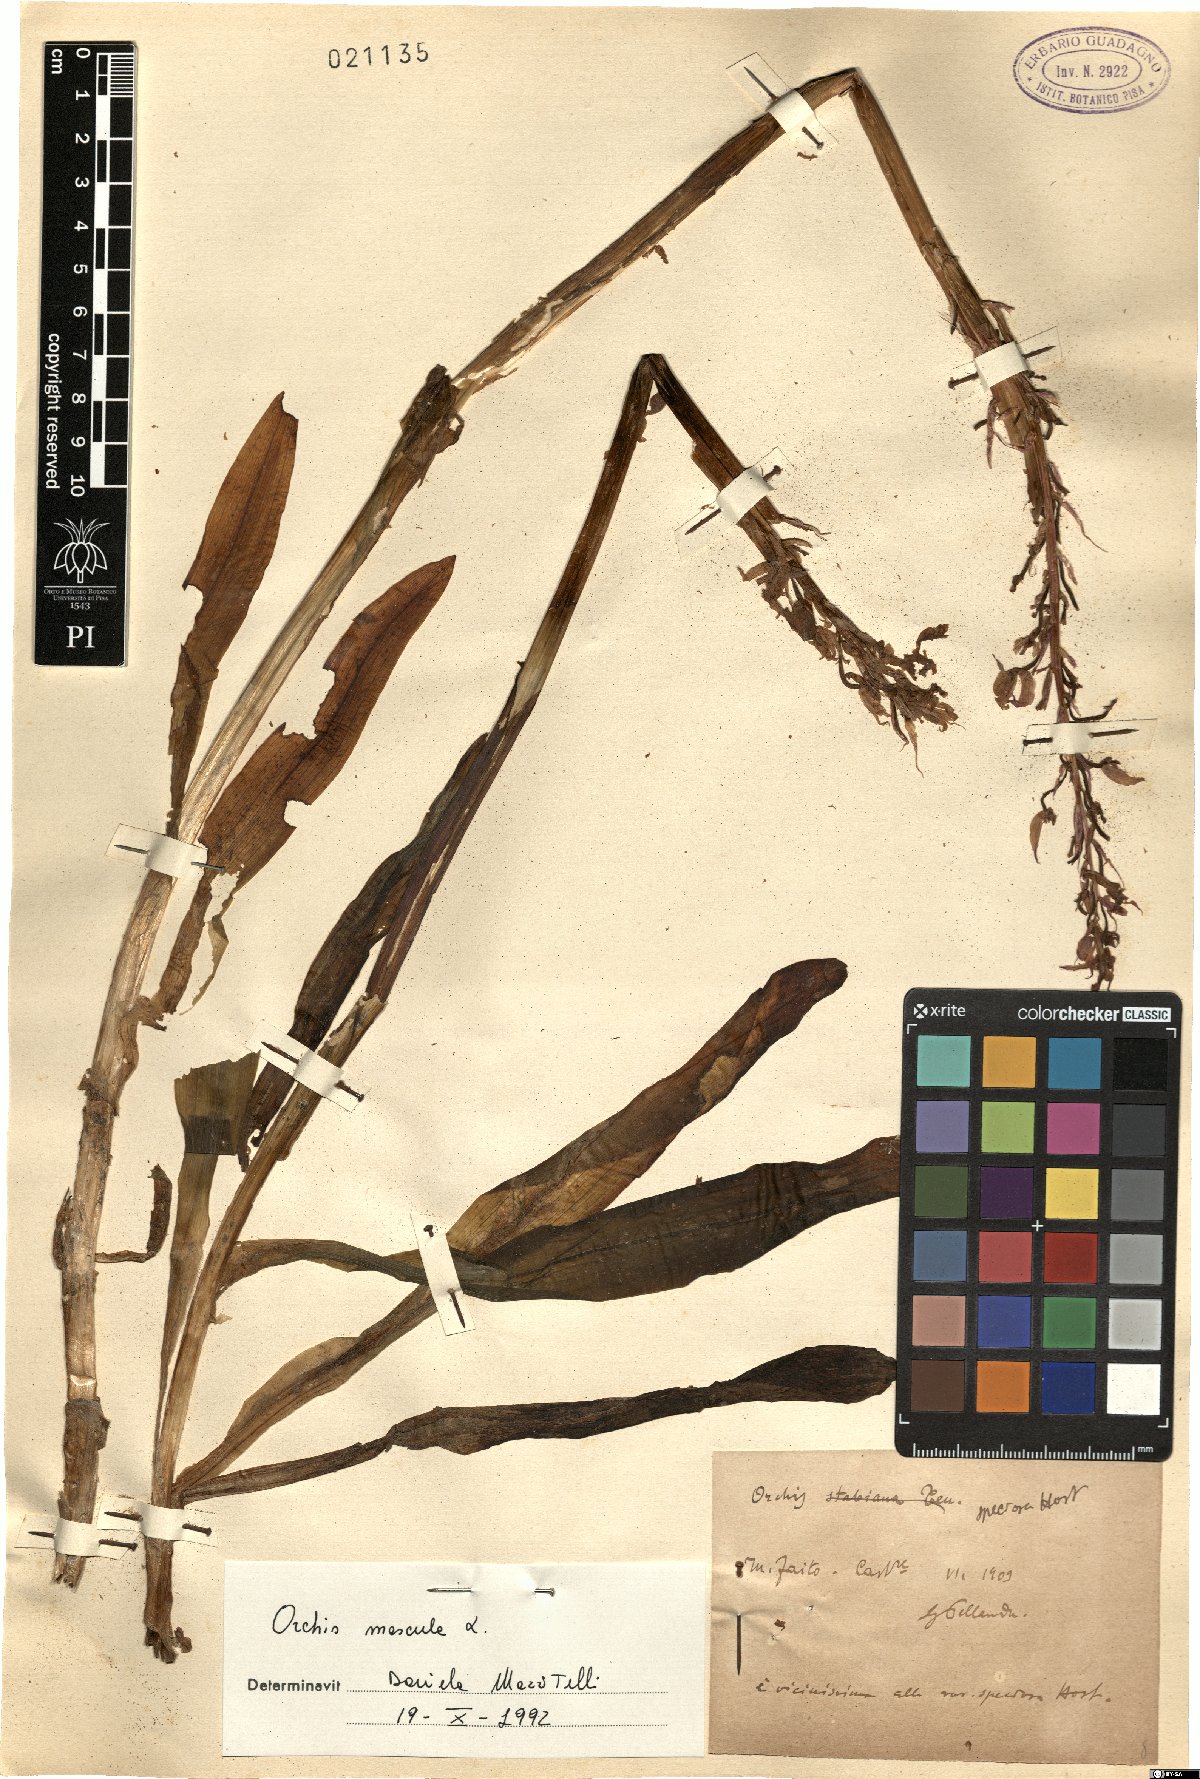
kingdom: Plantae
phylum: Tracheophyta
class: Liliopsida
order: Asparagales
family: Orchidaceae
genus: Orchis
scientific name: Orchis mascula
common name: Early-purple orchid
